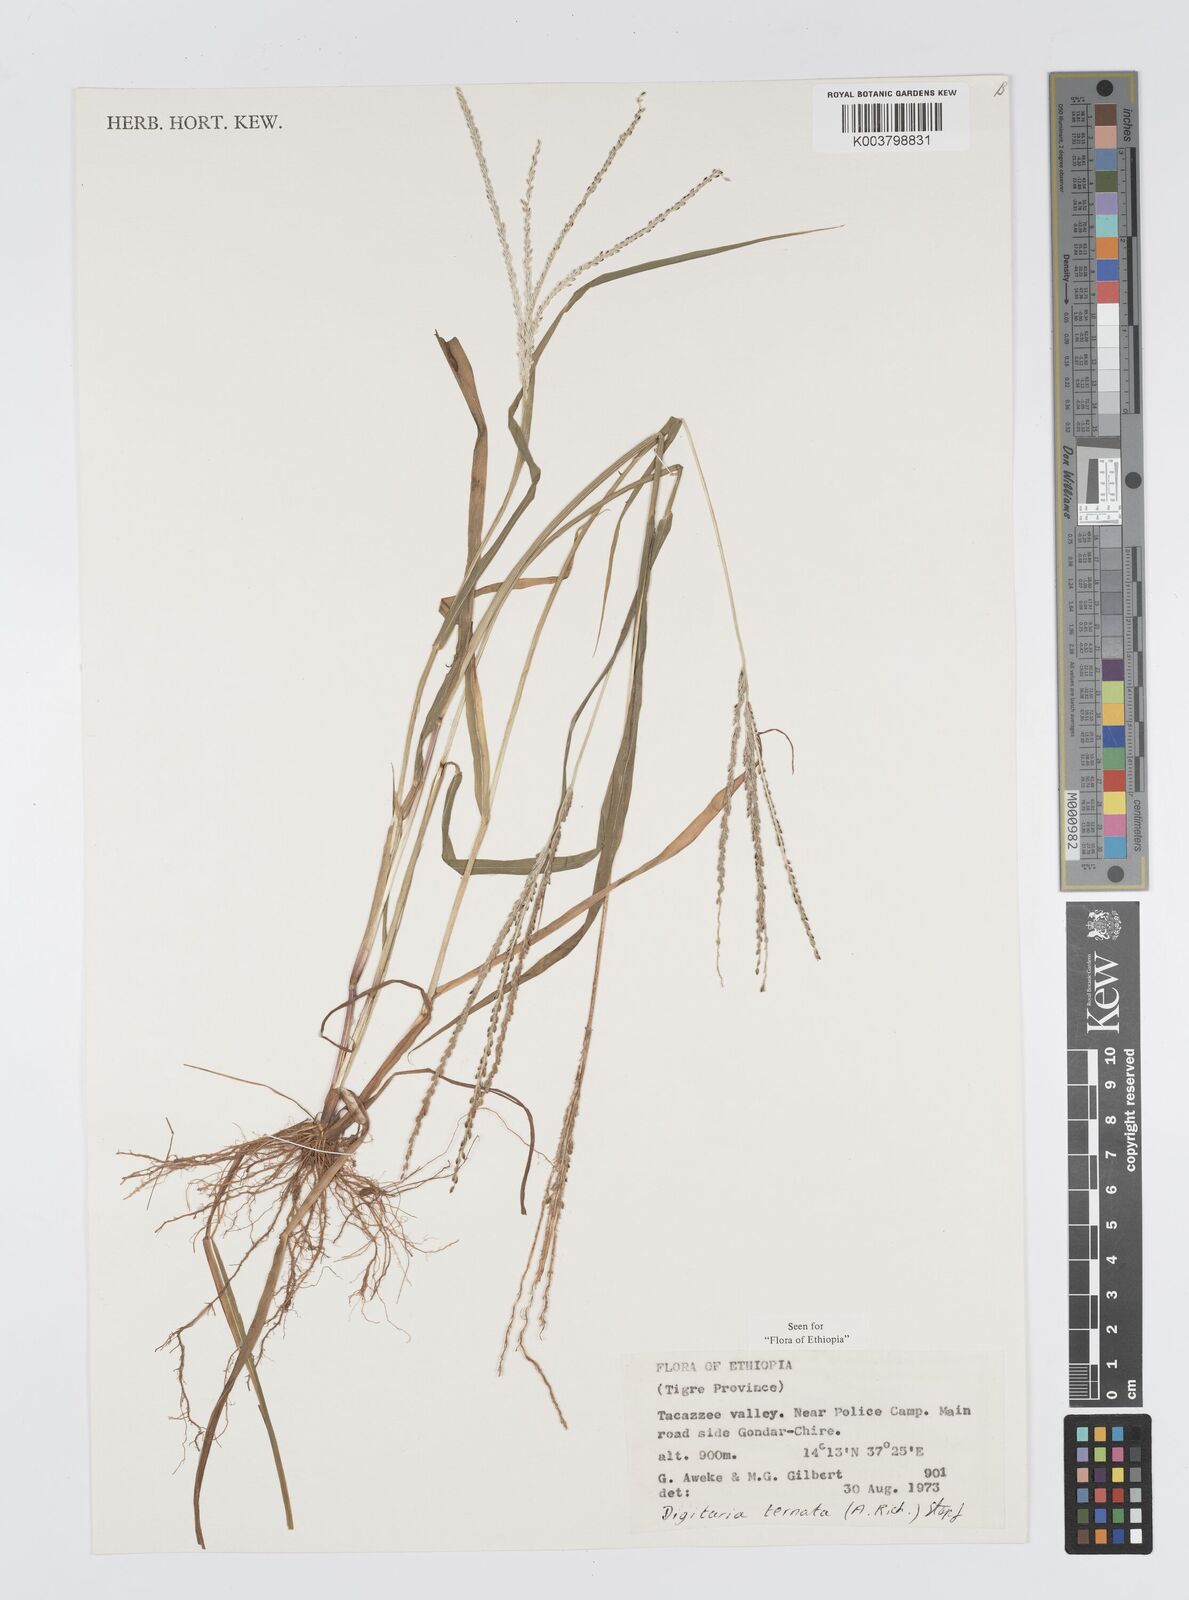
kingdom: Plantae
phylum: Tracheophyta
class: Liliopsida
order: Poales
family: Poaceae
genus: Digitaria
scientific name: Digitaria ternata
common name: Blackseed crabgrass
